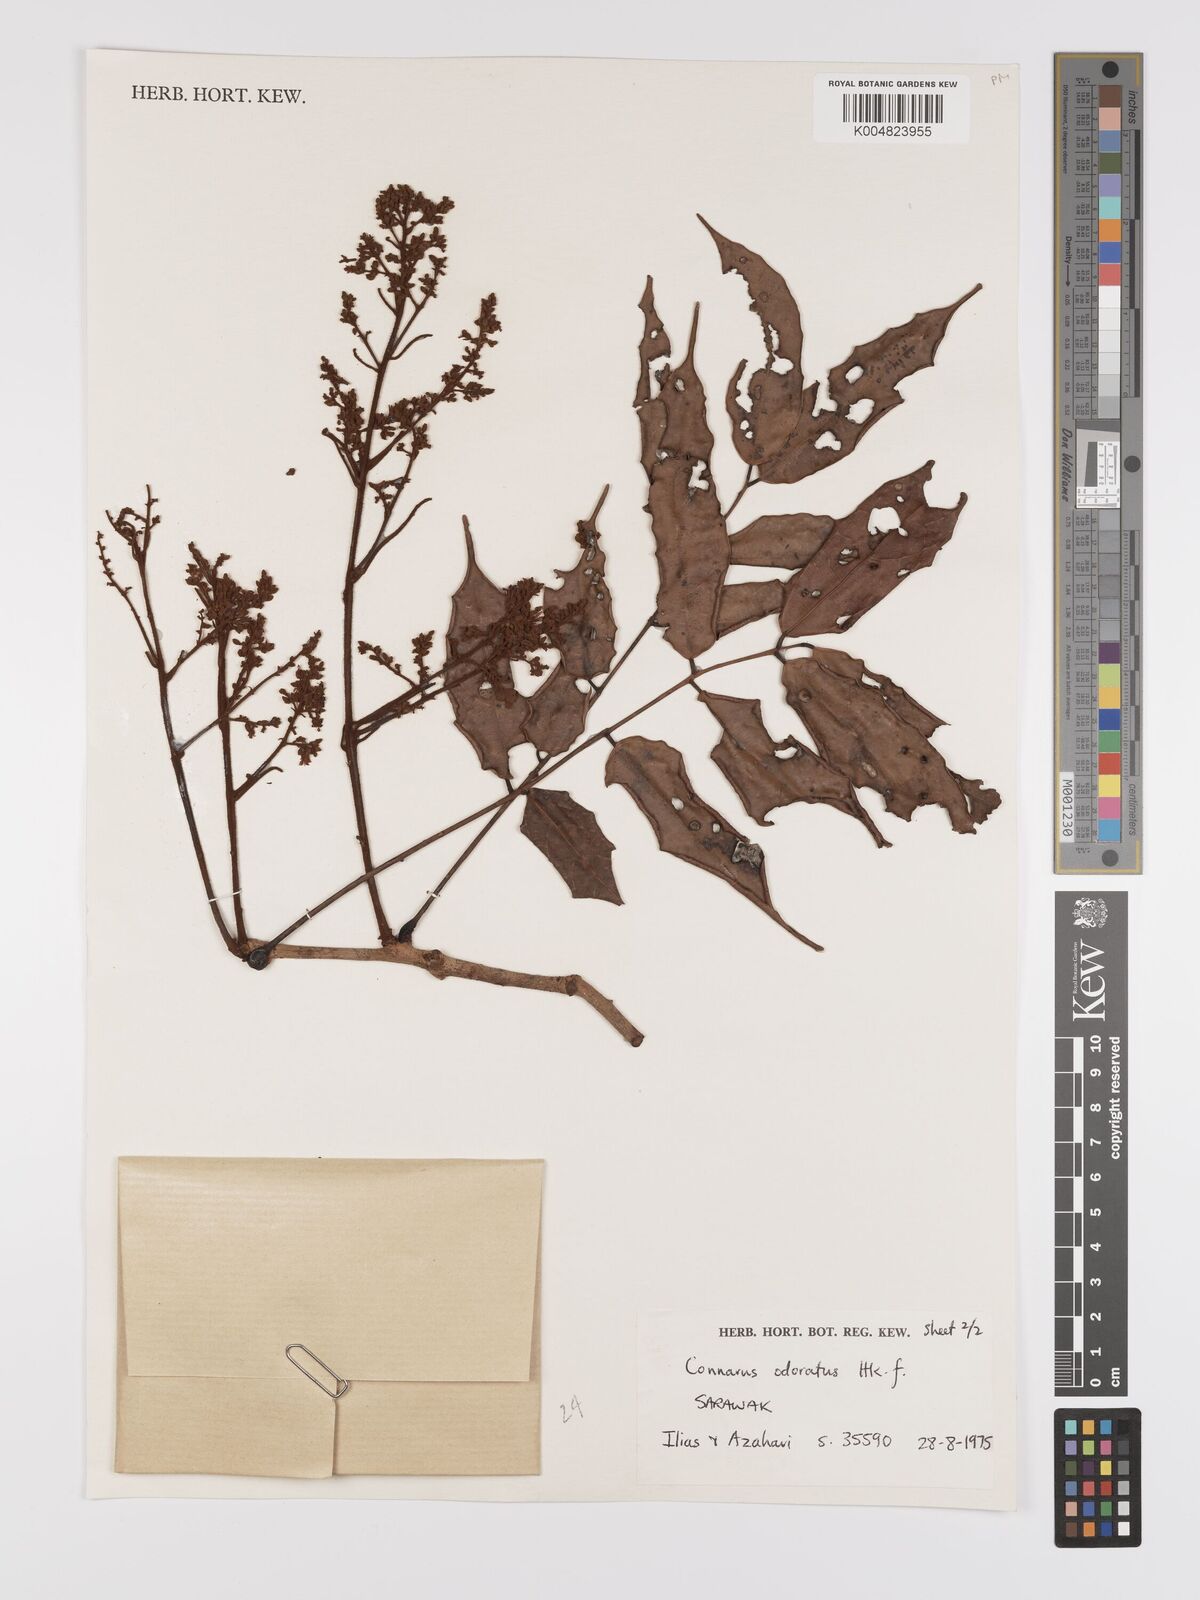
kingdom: Plantae
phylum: Tracheophyta
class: Magnoliopsida
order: Oxalidales
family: Connaraceae
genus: Connarus
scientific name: Connarus odoratus
